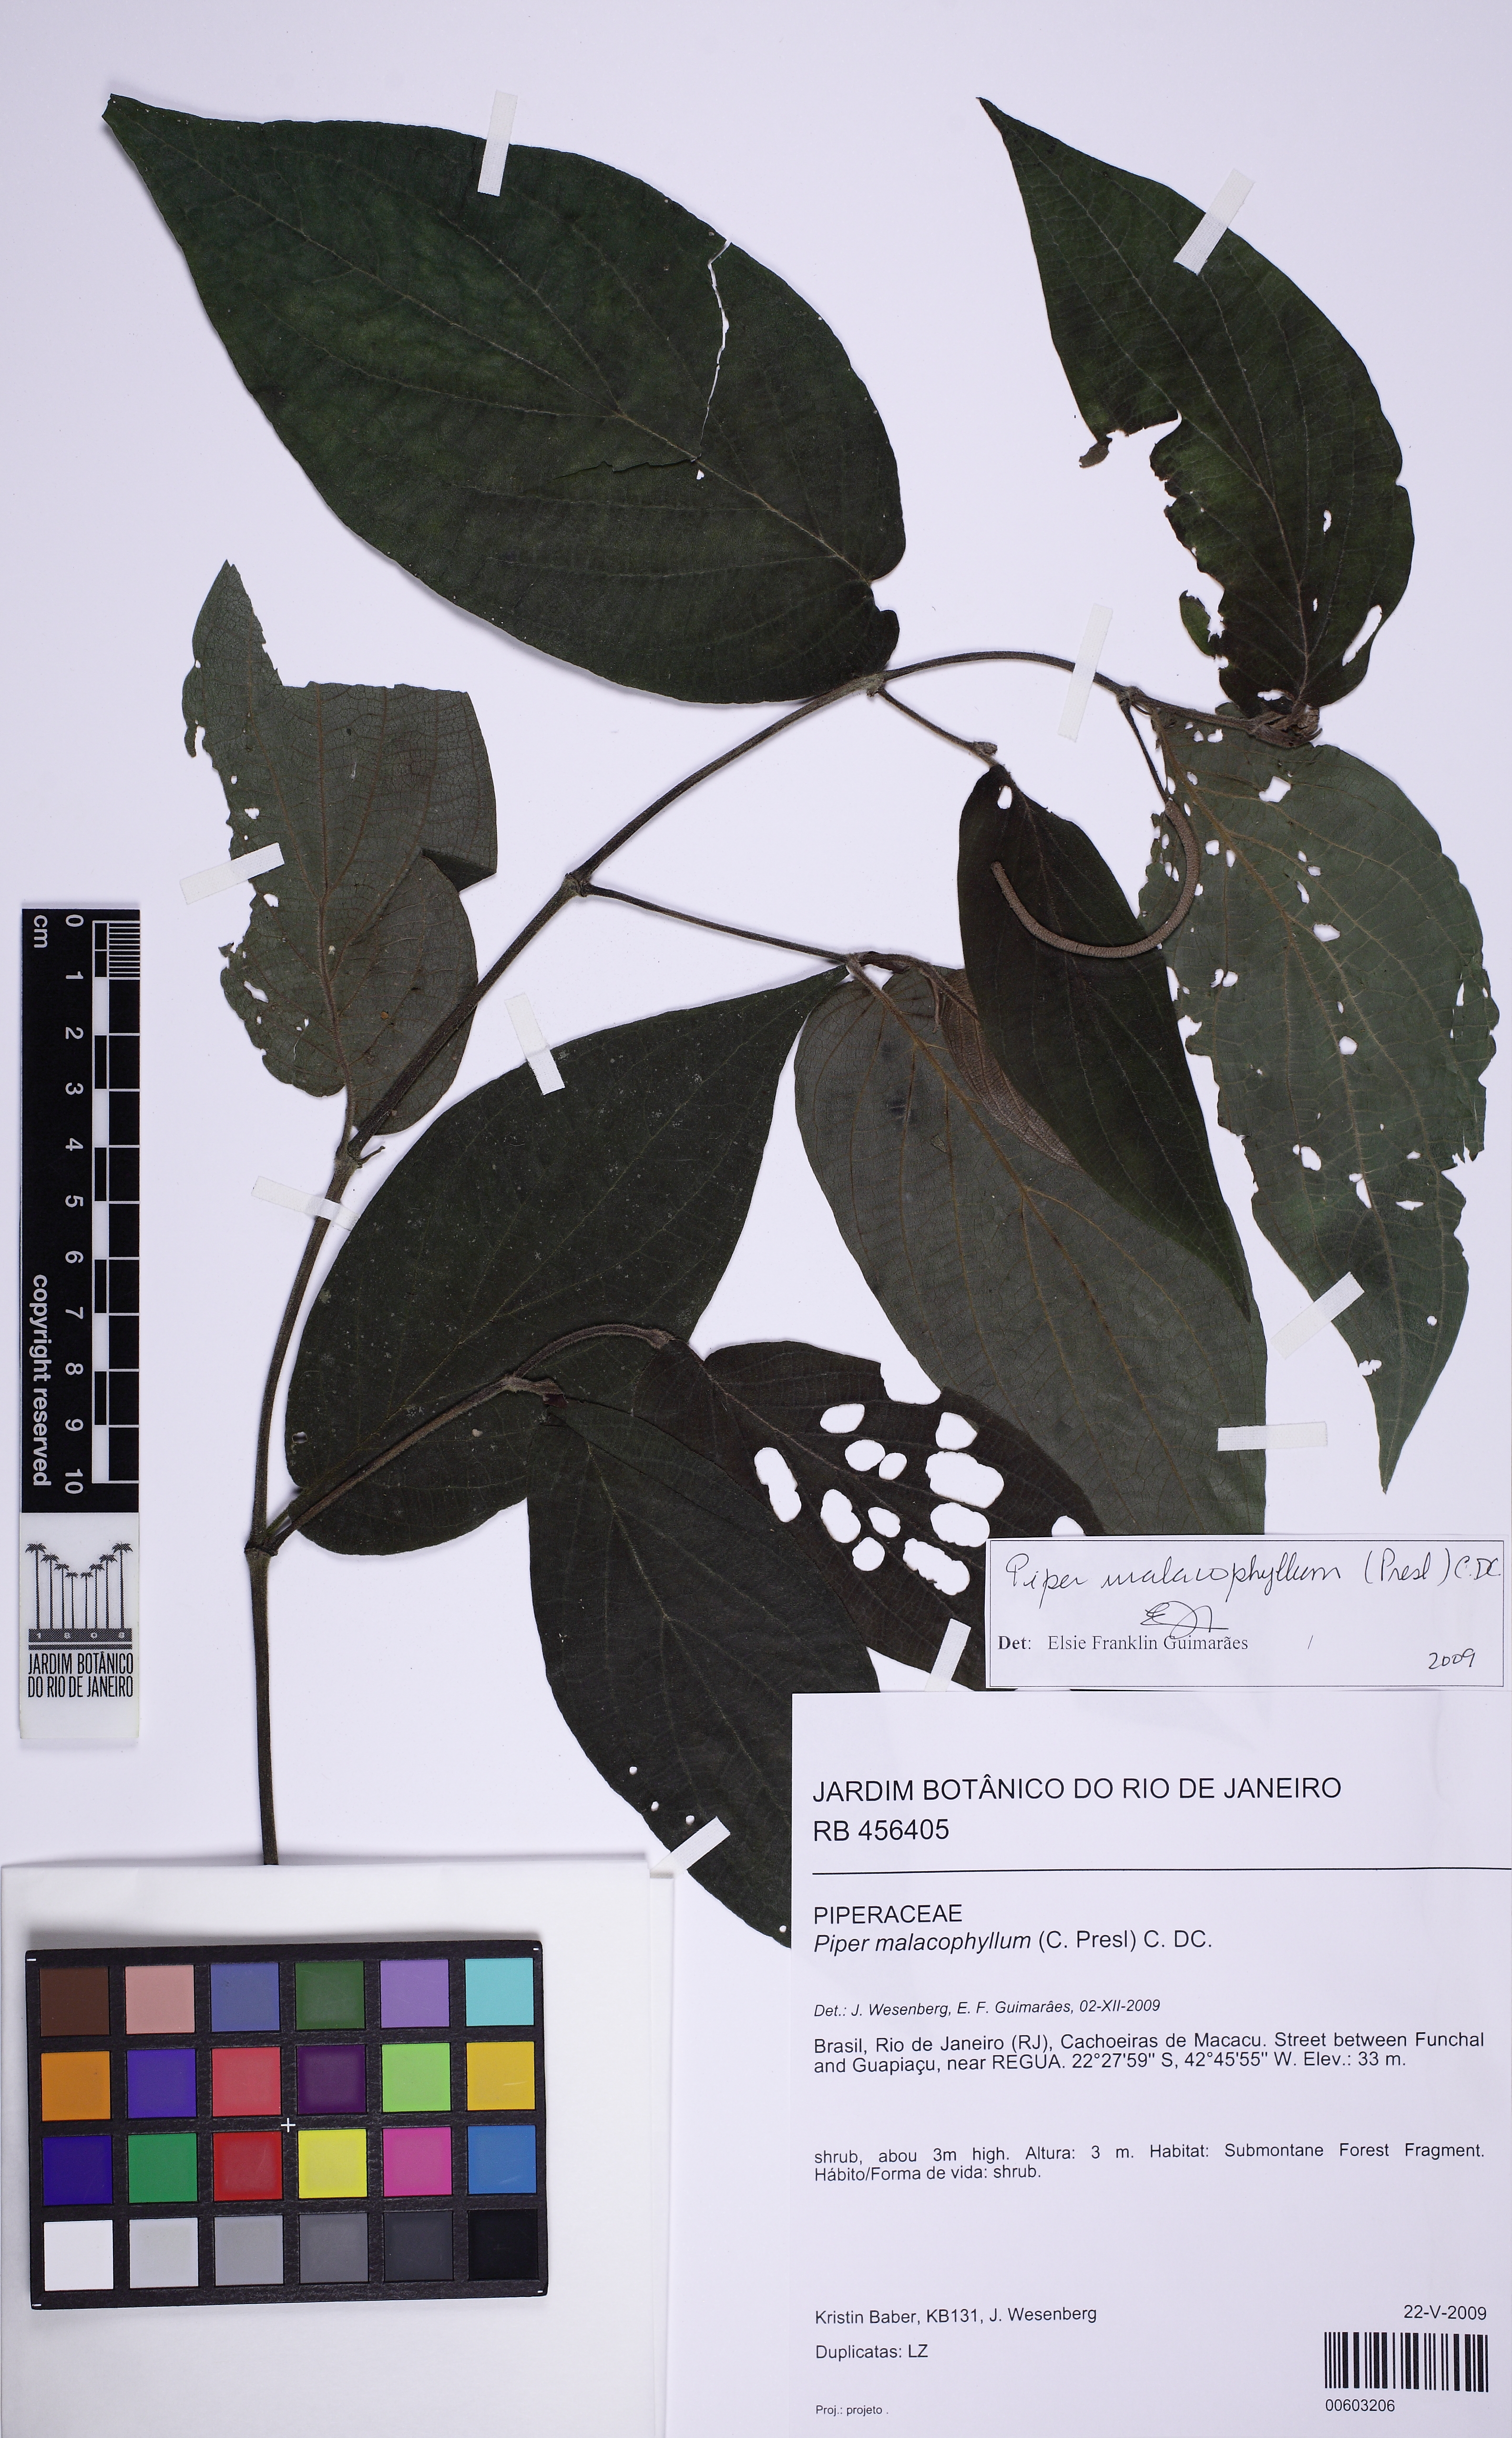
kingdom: Plantae
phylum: Tracheophyta
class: Magnoliopsida
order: Piperales
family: Piperaceae
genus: Piper
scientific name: Piper malacophyllum
